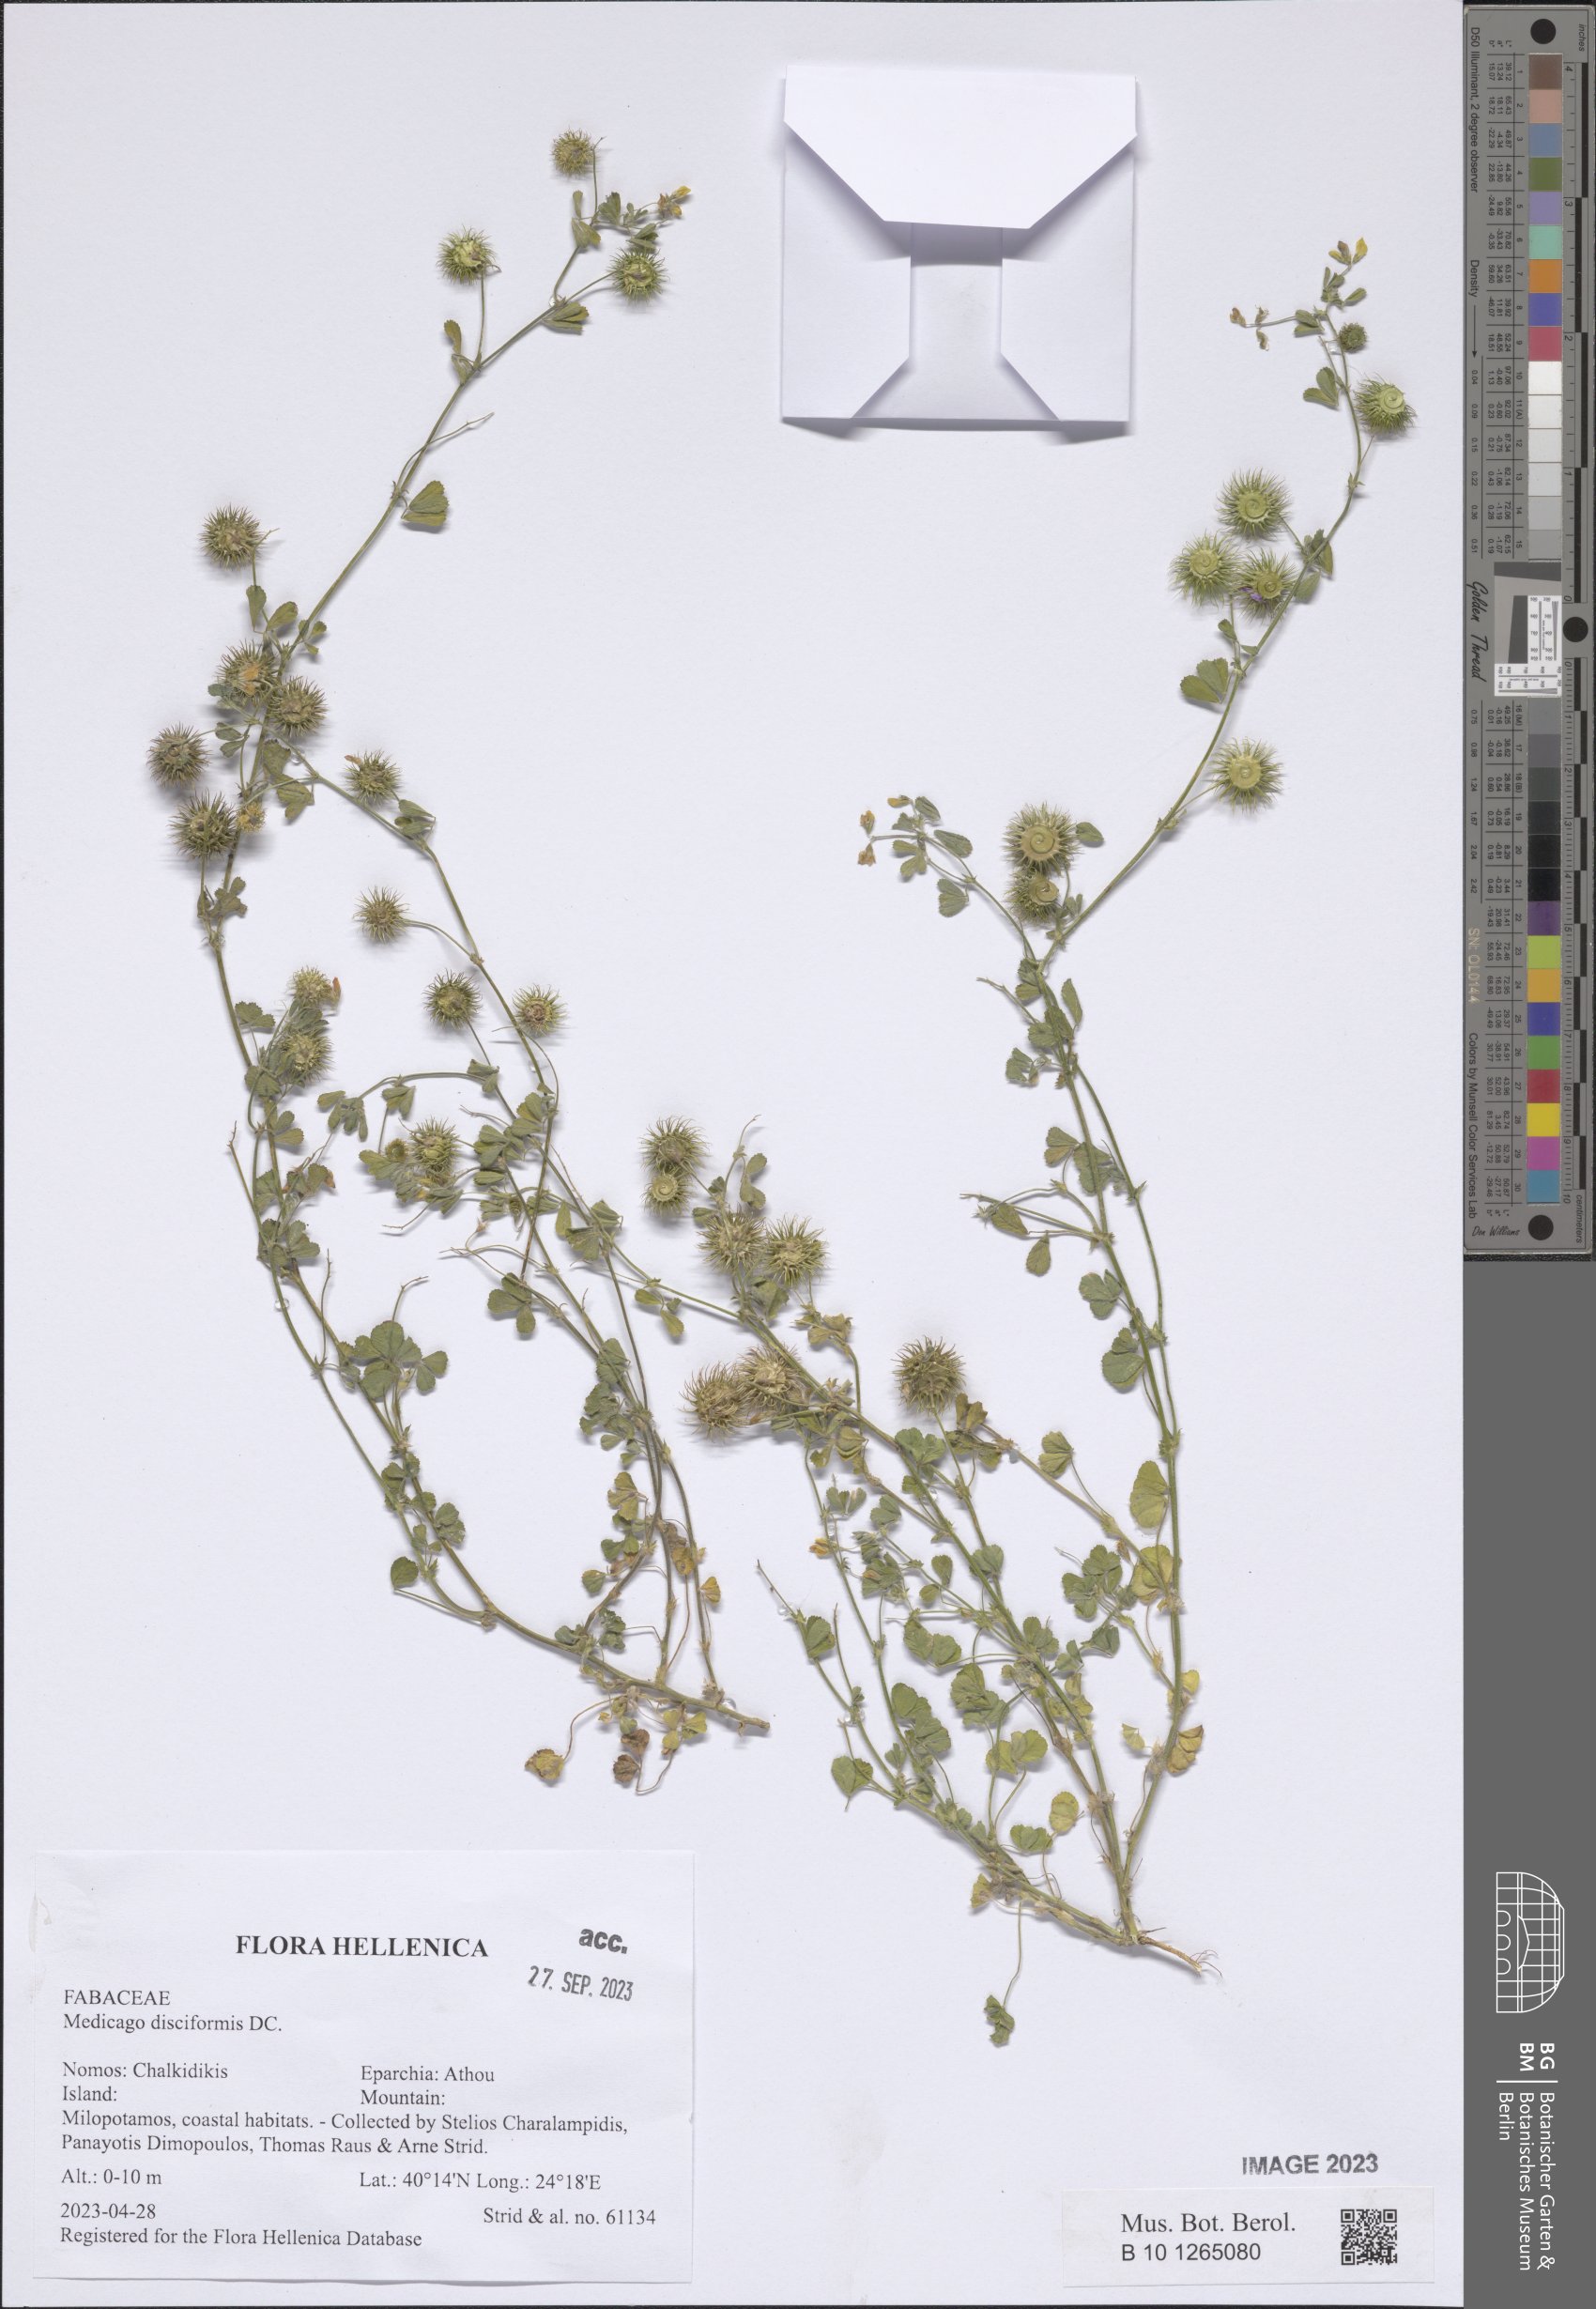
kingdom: Plantae
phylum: Tracheophyta
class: Magnoliopsida
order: Fabales
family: Fabaceae
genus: Medicago
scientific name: Medicago disciformis
